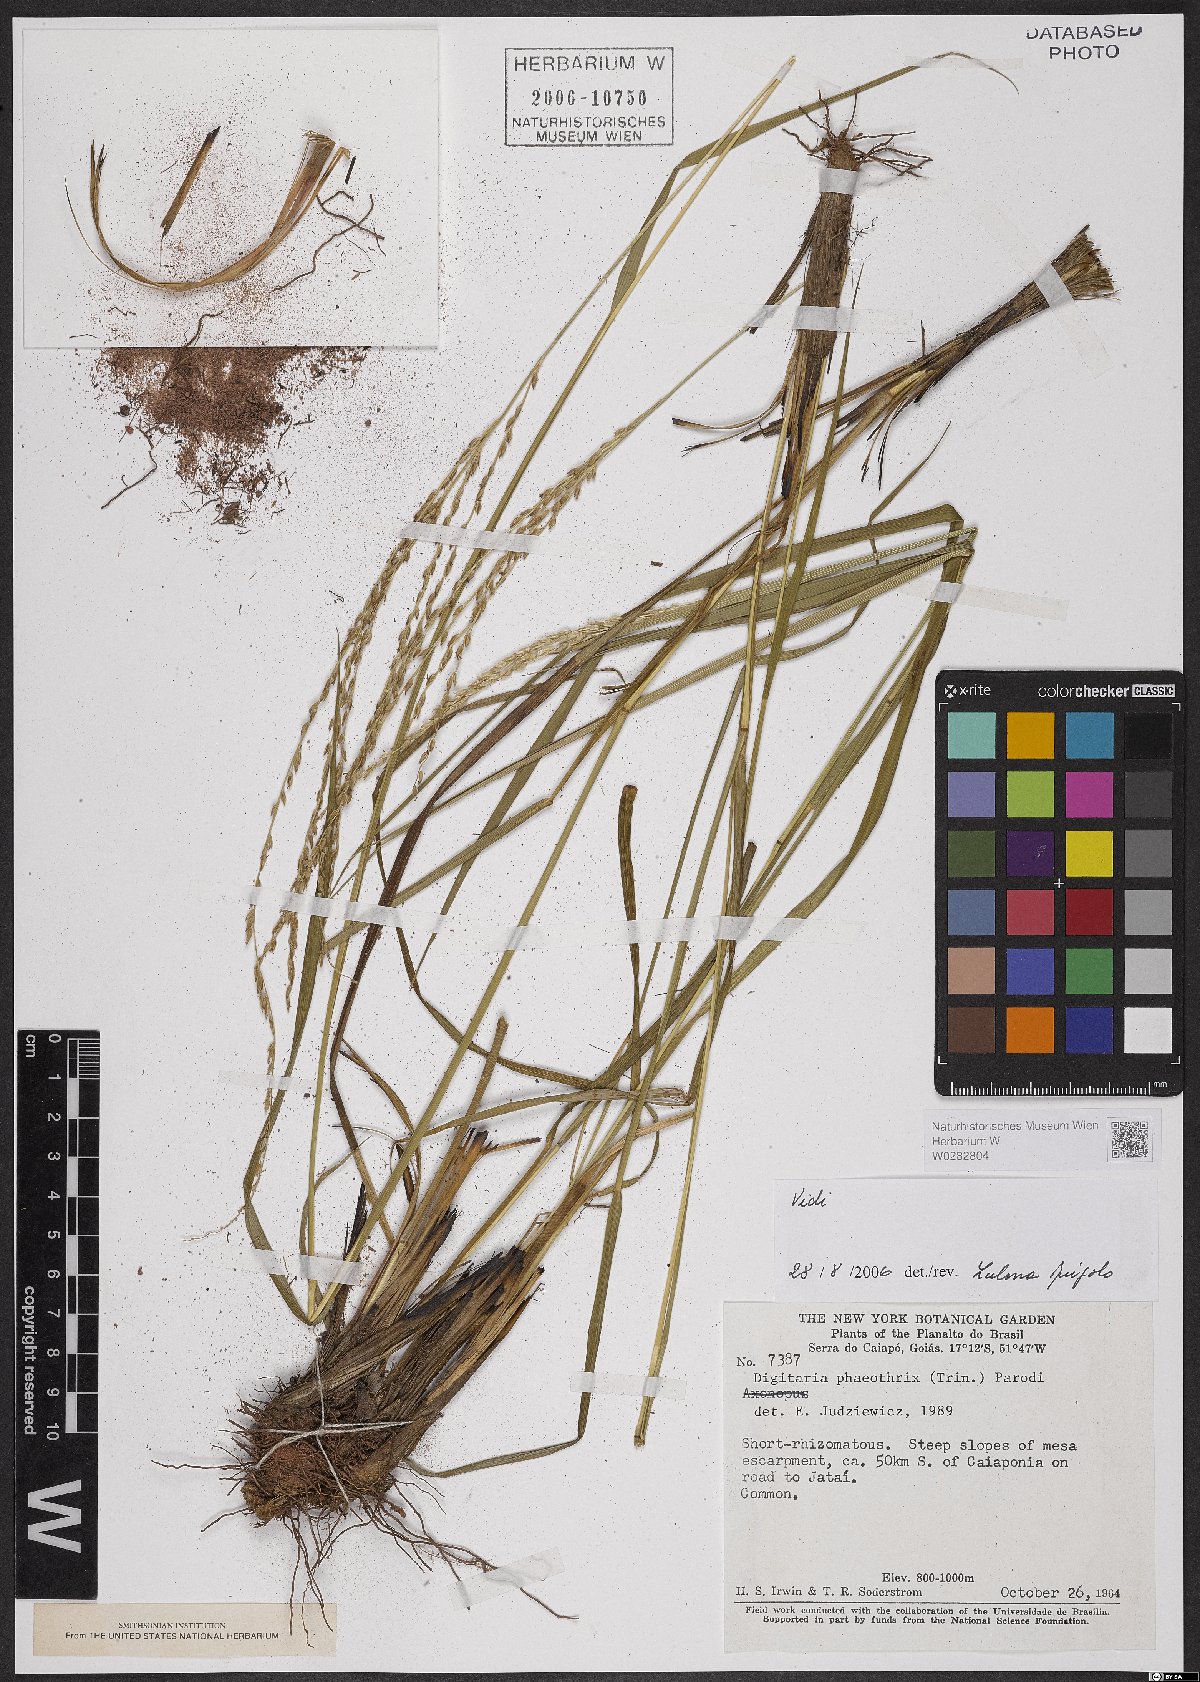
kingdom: Plantae
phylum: Tracheophyta
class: Liliopsida
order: Poales
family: Poaceae
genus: Digitaria
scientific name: Digitaria phaeothrix
